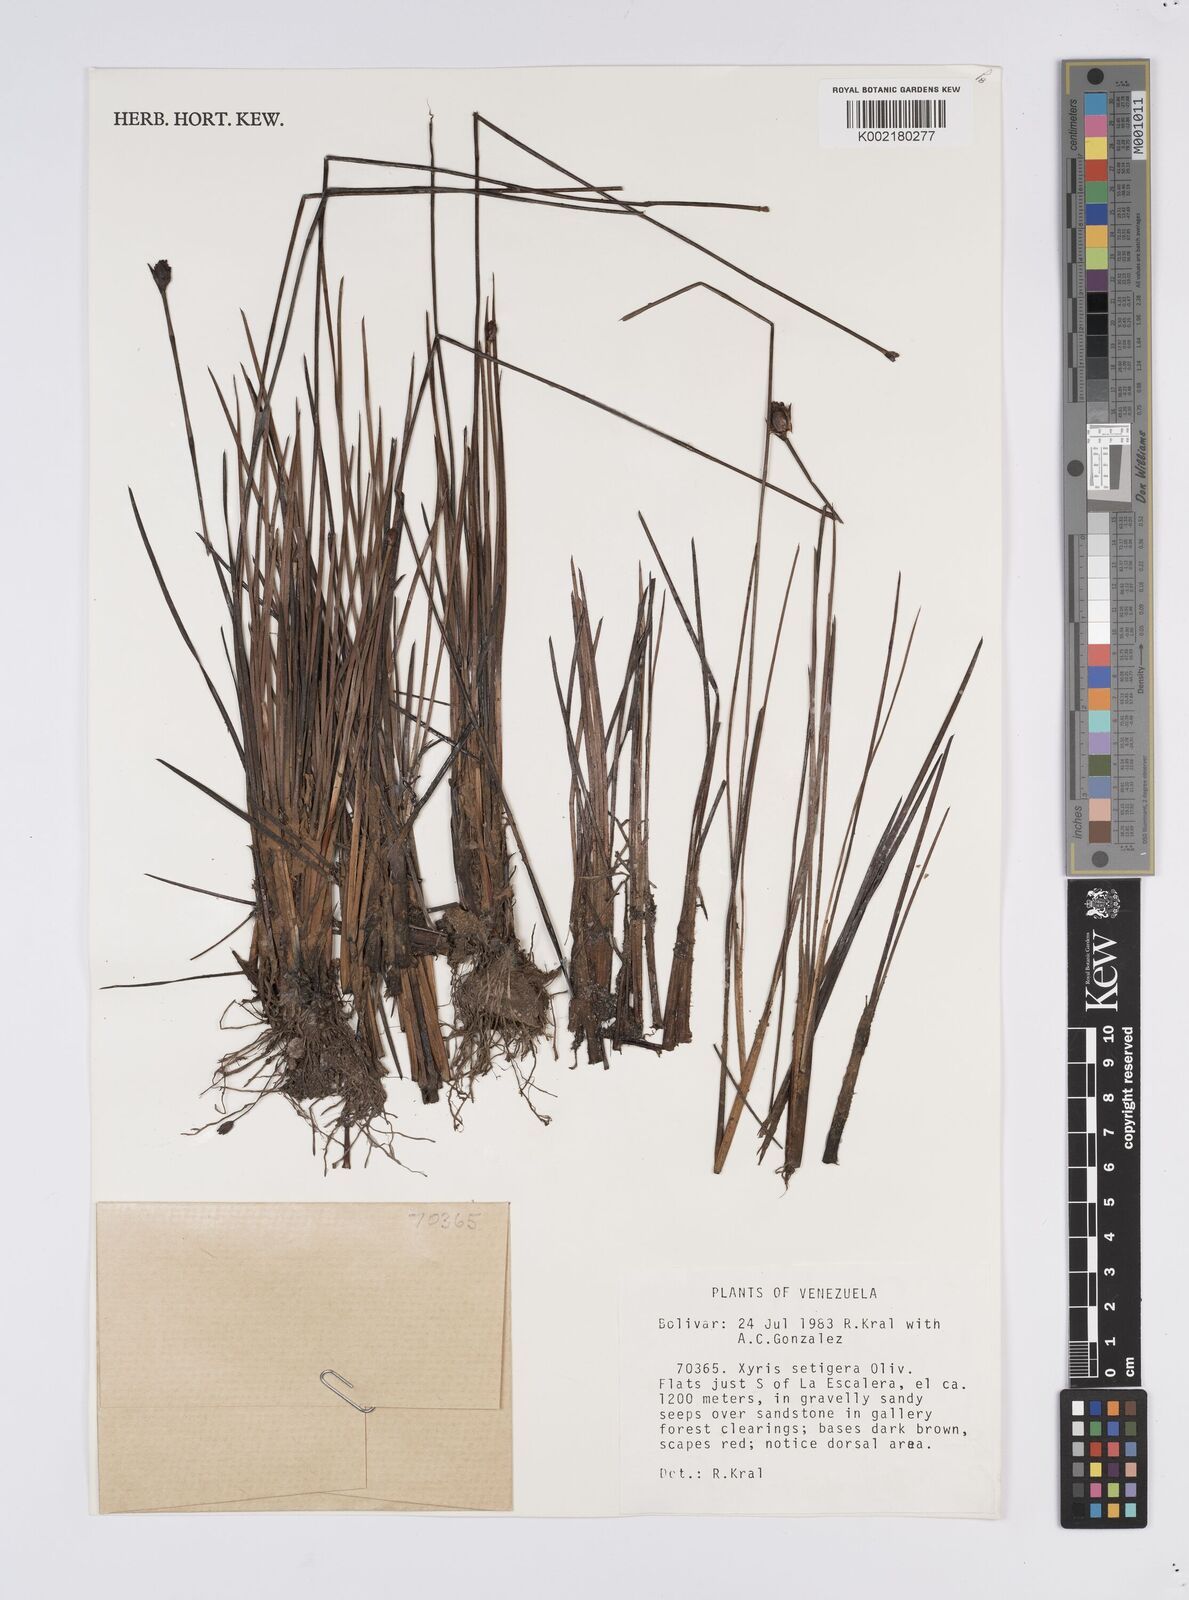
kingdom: Plantae
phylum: Tracheophyta
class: Liliopsida
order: Poales
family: Xyridaceae
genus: Xyris
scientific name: Xyris setigera
